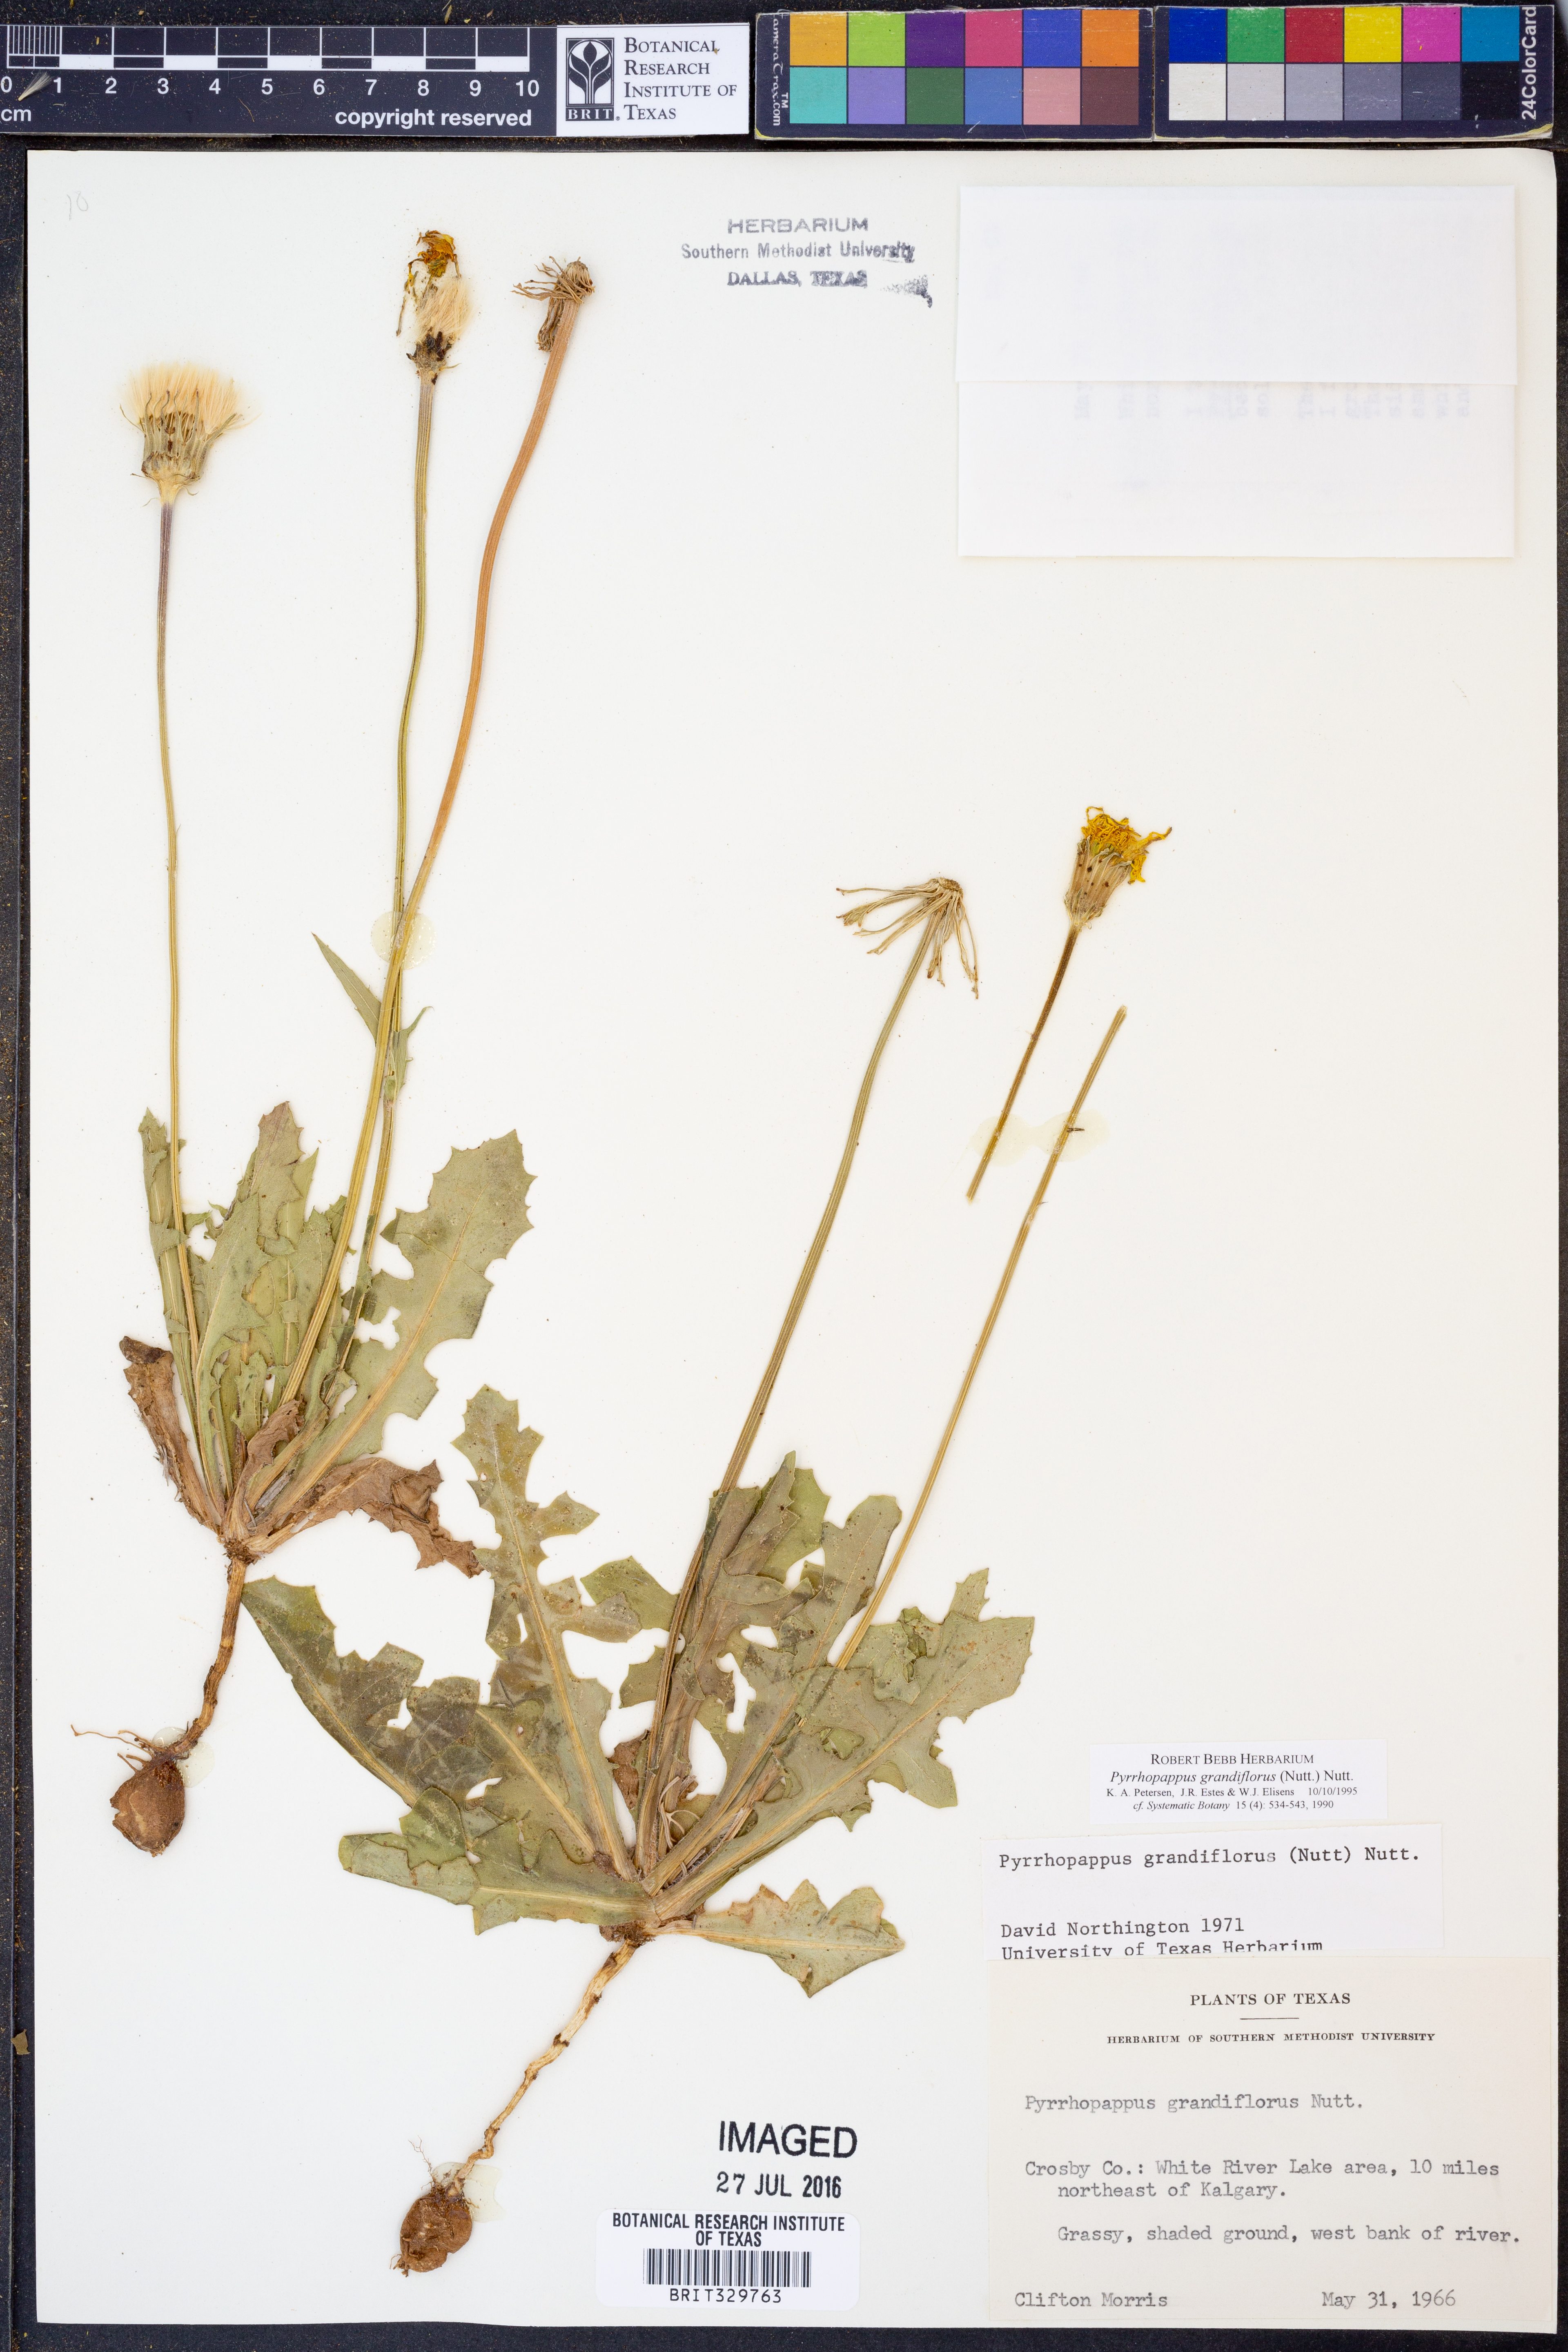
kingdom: Plantae
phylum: Tracheophyta
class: Magnoliopsida
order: Asterales
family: Asteraceae
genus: Pyrrhopappus
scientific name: Pyrrhopappus grandiflorus
